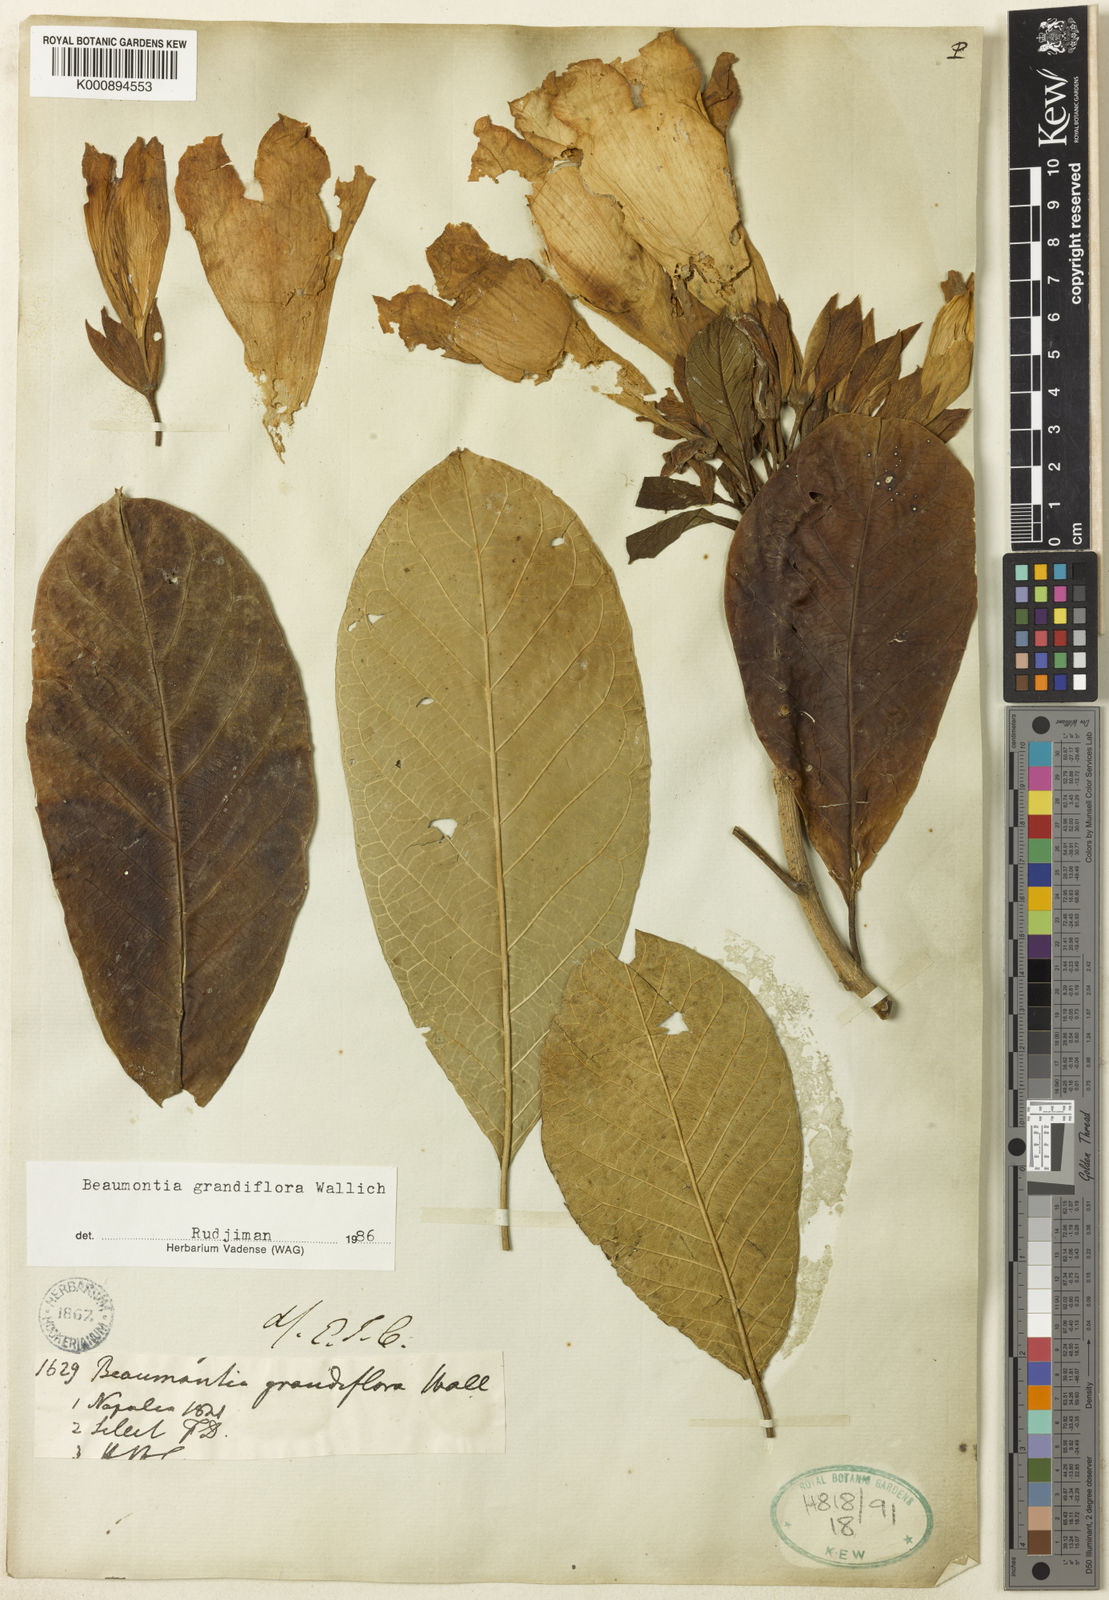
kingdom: Plantae
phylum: Tracheophyta
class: Magnoliopsida
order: Gentianales
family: Apocynaceae
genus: Beaumontia
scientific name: Beaumontia grandiflora
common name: Easter-lily-vine
